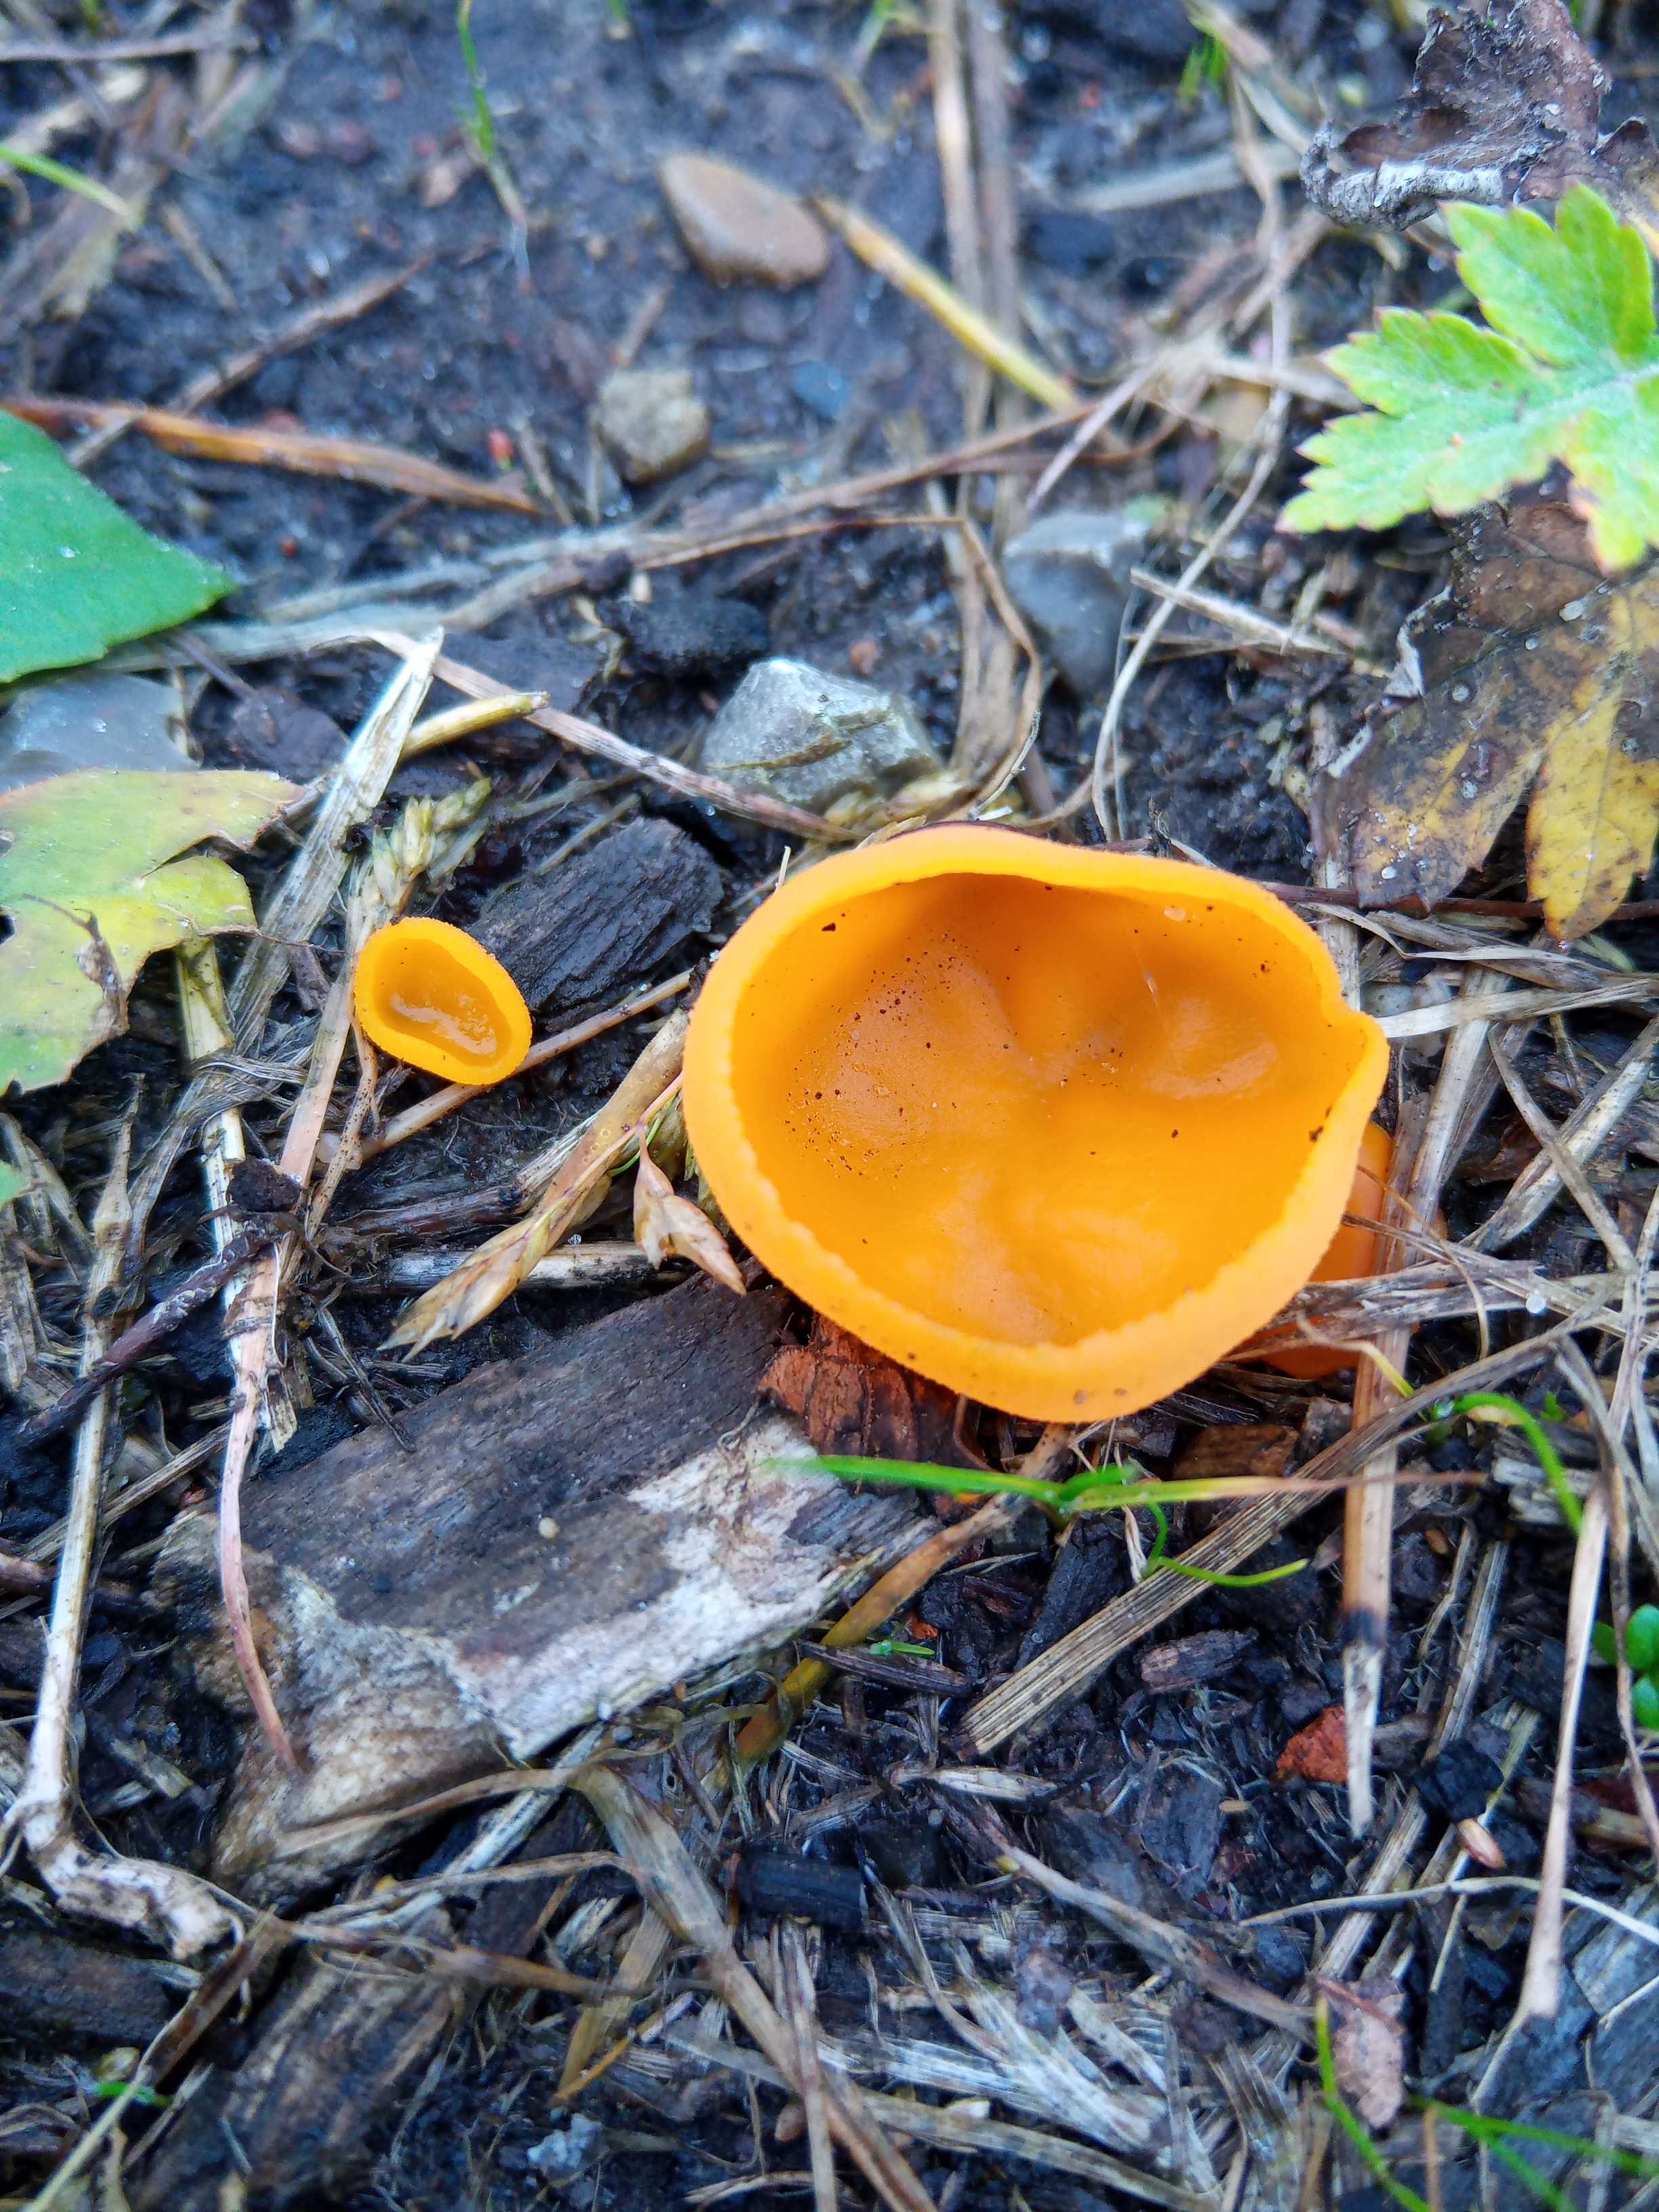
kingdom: Fungi
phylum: Ascomycota
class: Pezizomycetes
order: Pezizales
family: Pyronemataceae
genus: Aleuria
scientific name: Aleuria aurantia
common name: almindelig orangebæger
